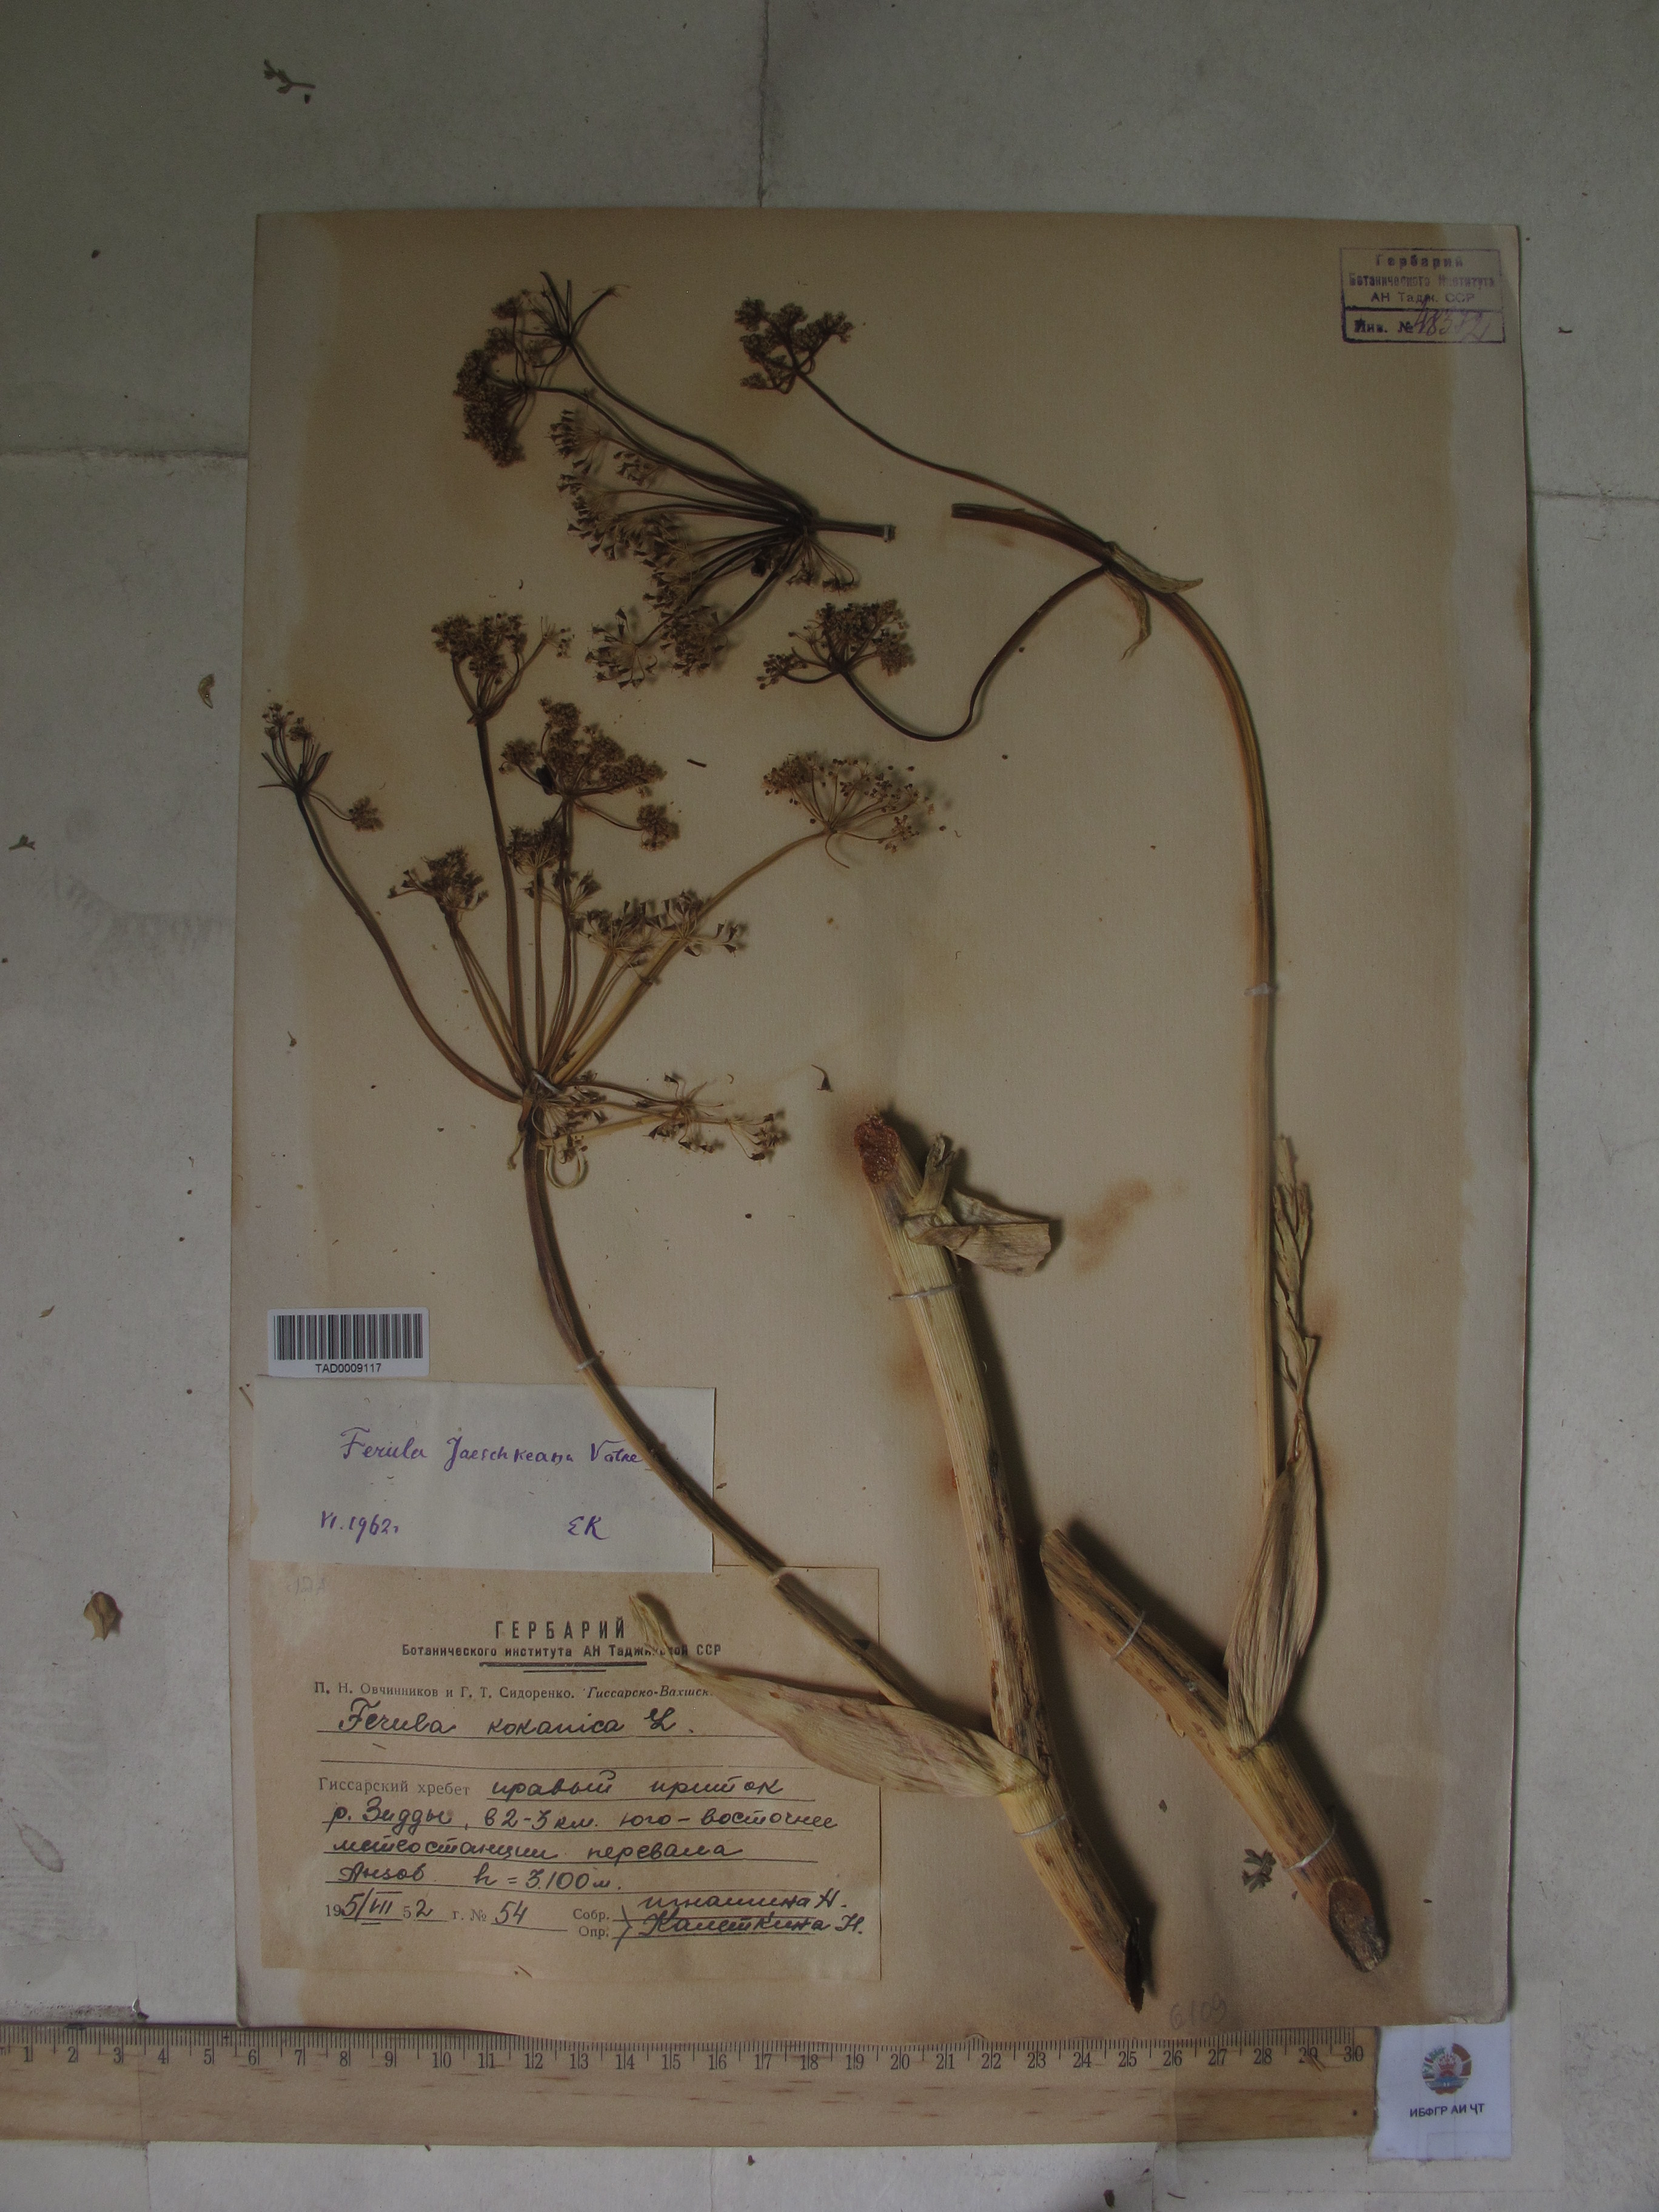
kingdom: Plantae
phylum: Tracheophyta
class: Magnoliopsida
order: Apiales
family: Apiaceae
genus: Ferula
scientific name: Ferula kokanica
